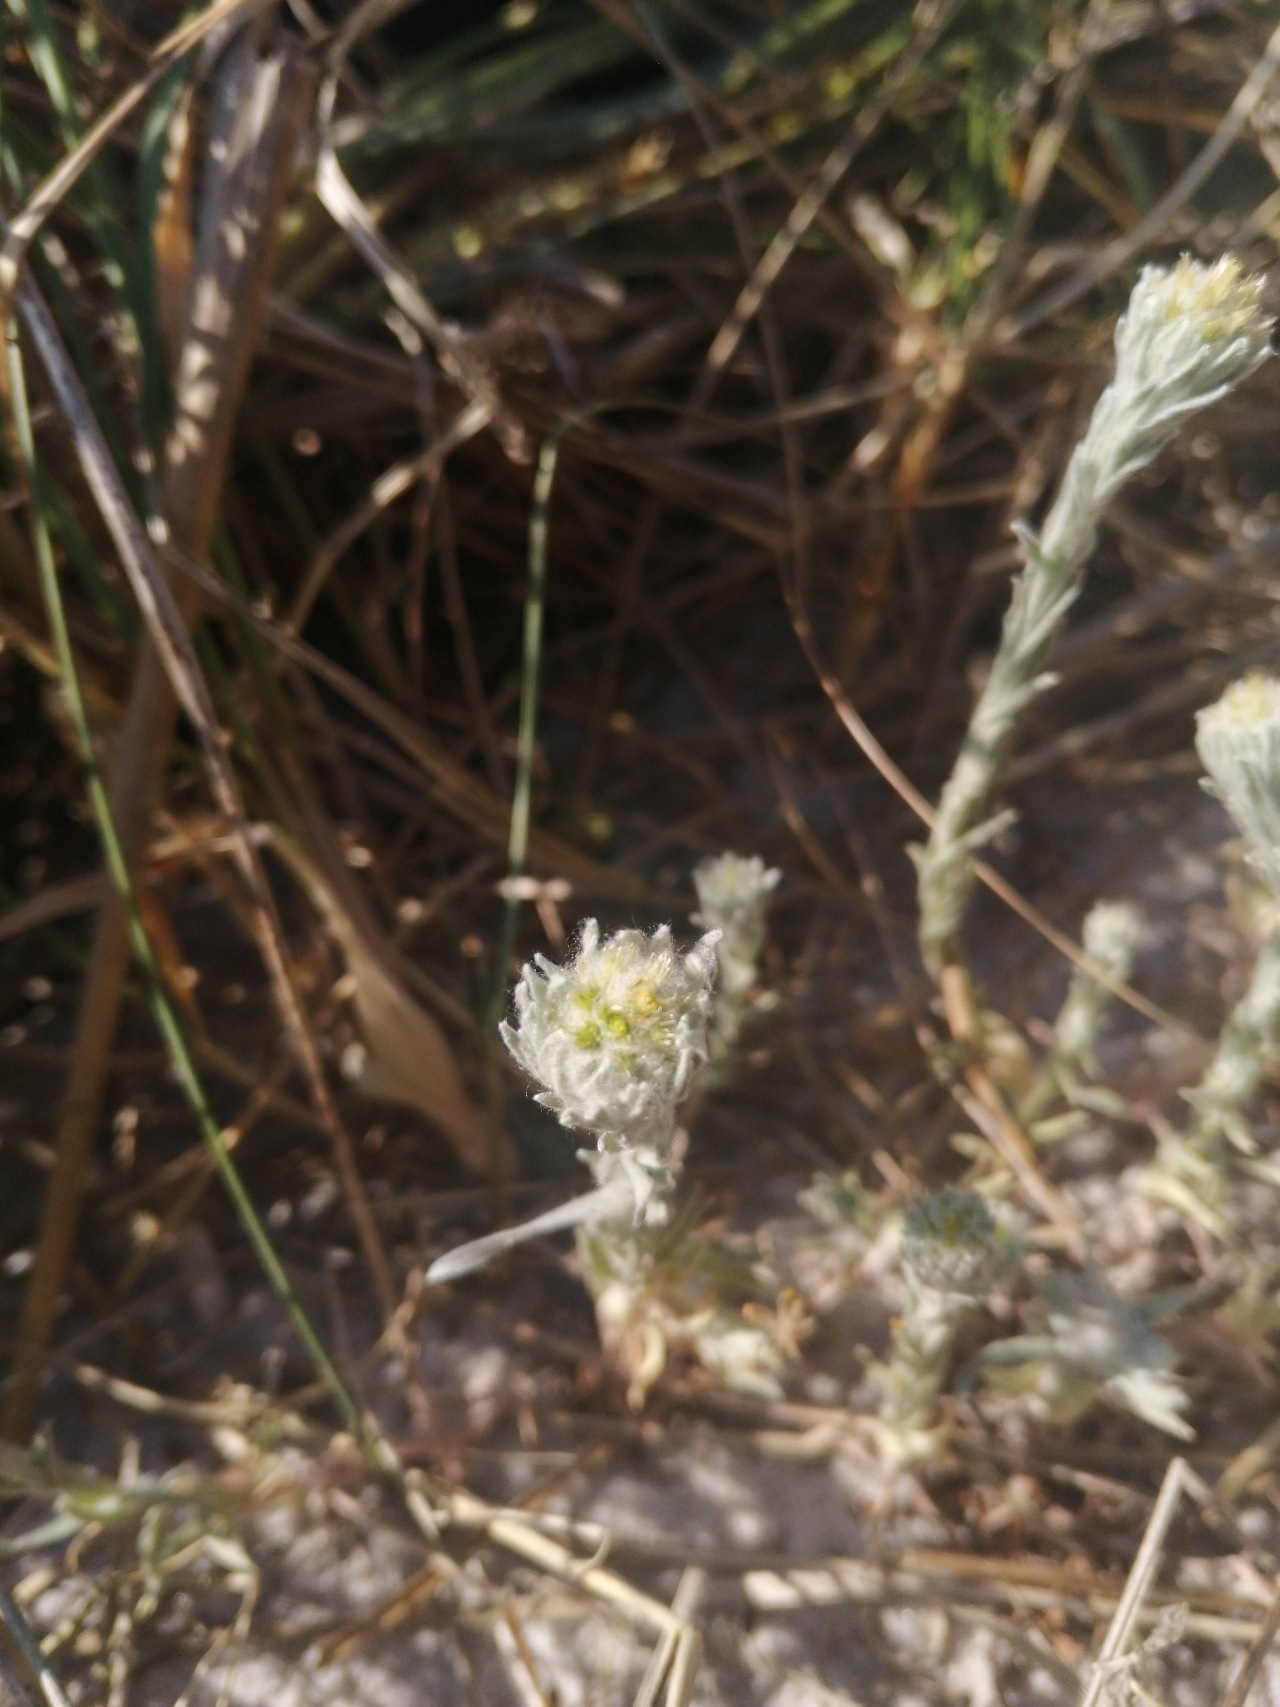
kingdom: Plantae
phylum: Tracheophyta
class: Magnoliopsida
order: Asterales
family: Asteraceae
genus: Filago
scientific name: Filago germanica
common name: Kugle-museurt
